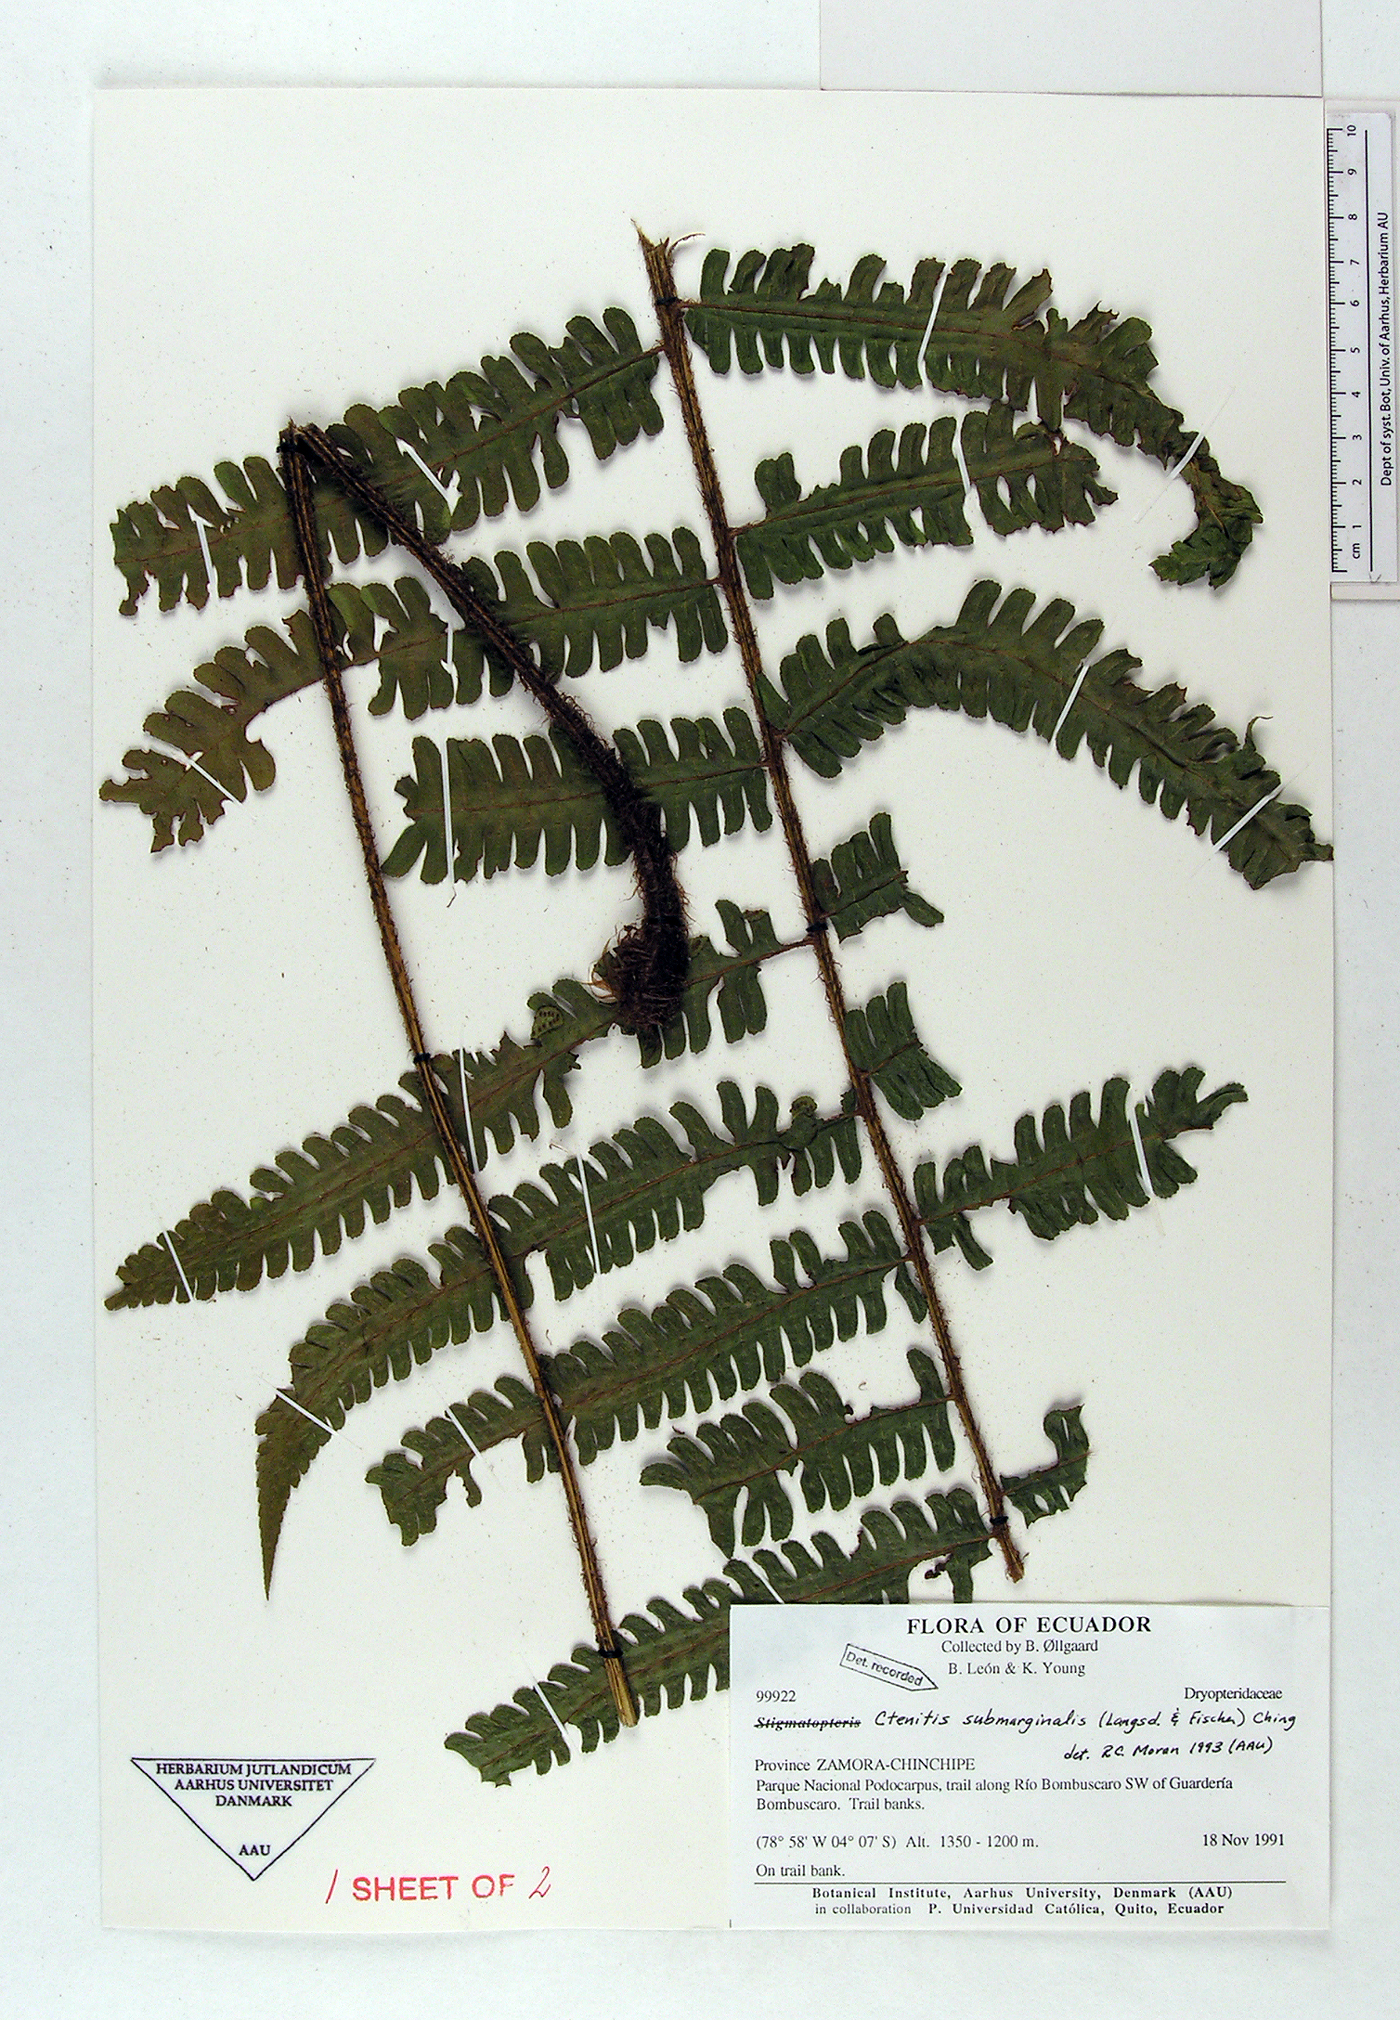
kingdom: Plantae
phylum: Tracheophyta
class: Polypodiopsida
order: Polypodiales
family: Dryopteridaceae
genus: Megalastrum
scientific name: Megalastrum
